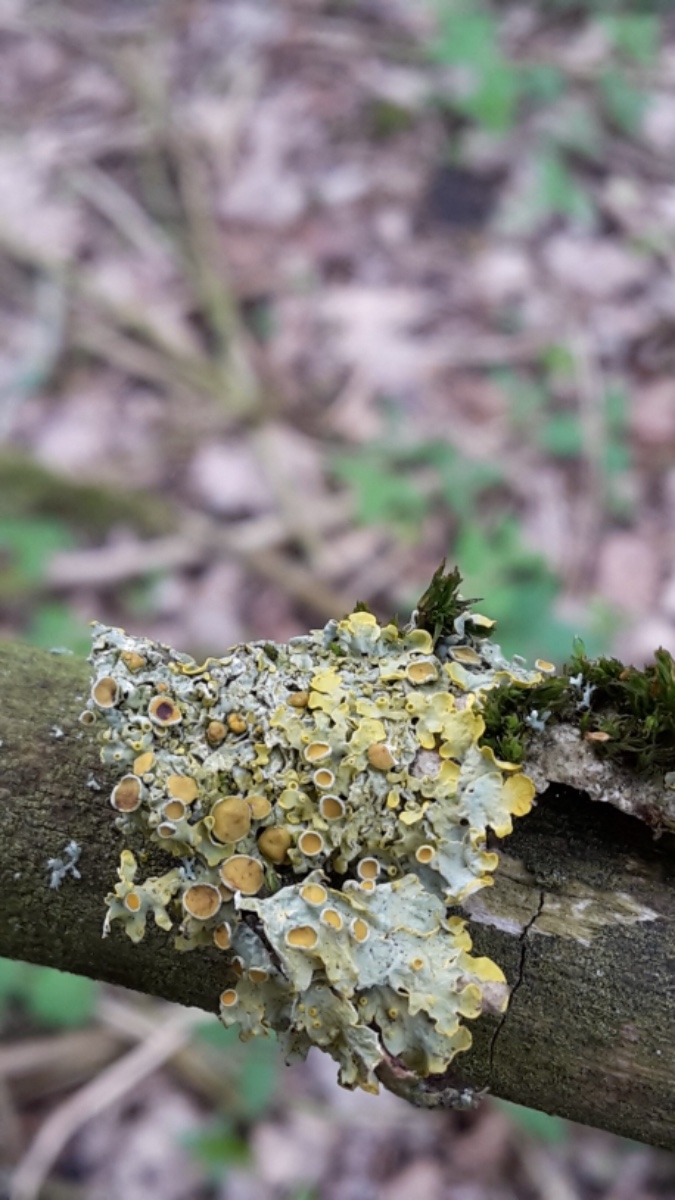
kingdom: Fungi
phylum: Ascomycota
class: Lecanoromycetes
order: Teloschistales
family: Teloschistaceae
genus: Xanthoria
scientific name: Xanthoria parietina
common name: almindelig væggelav
